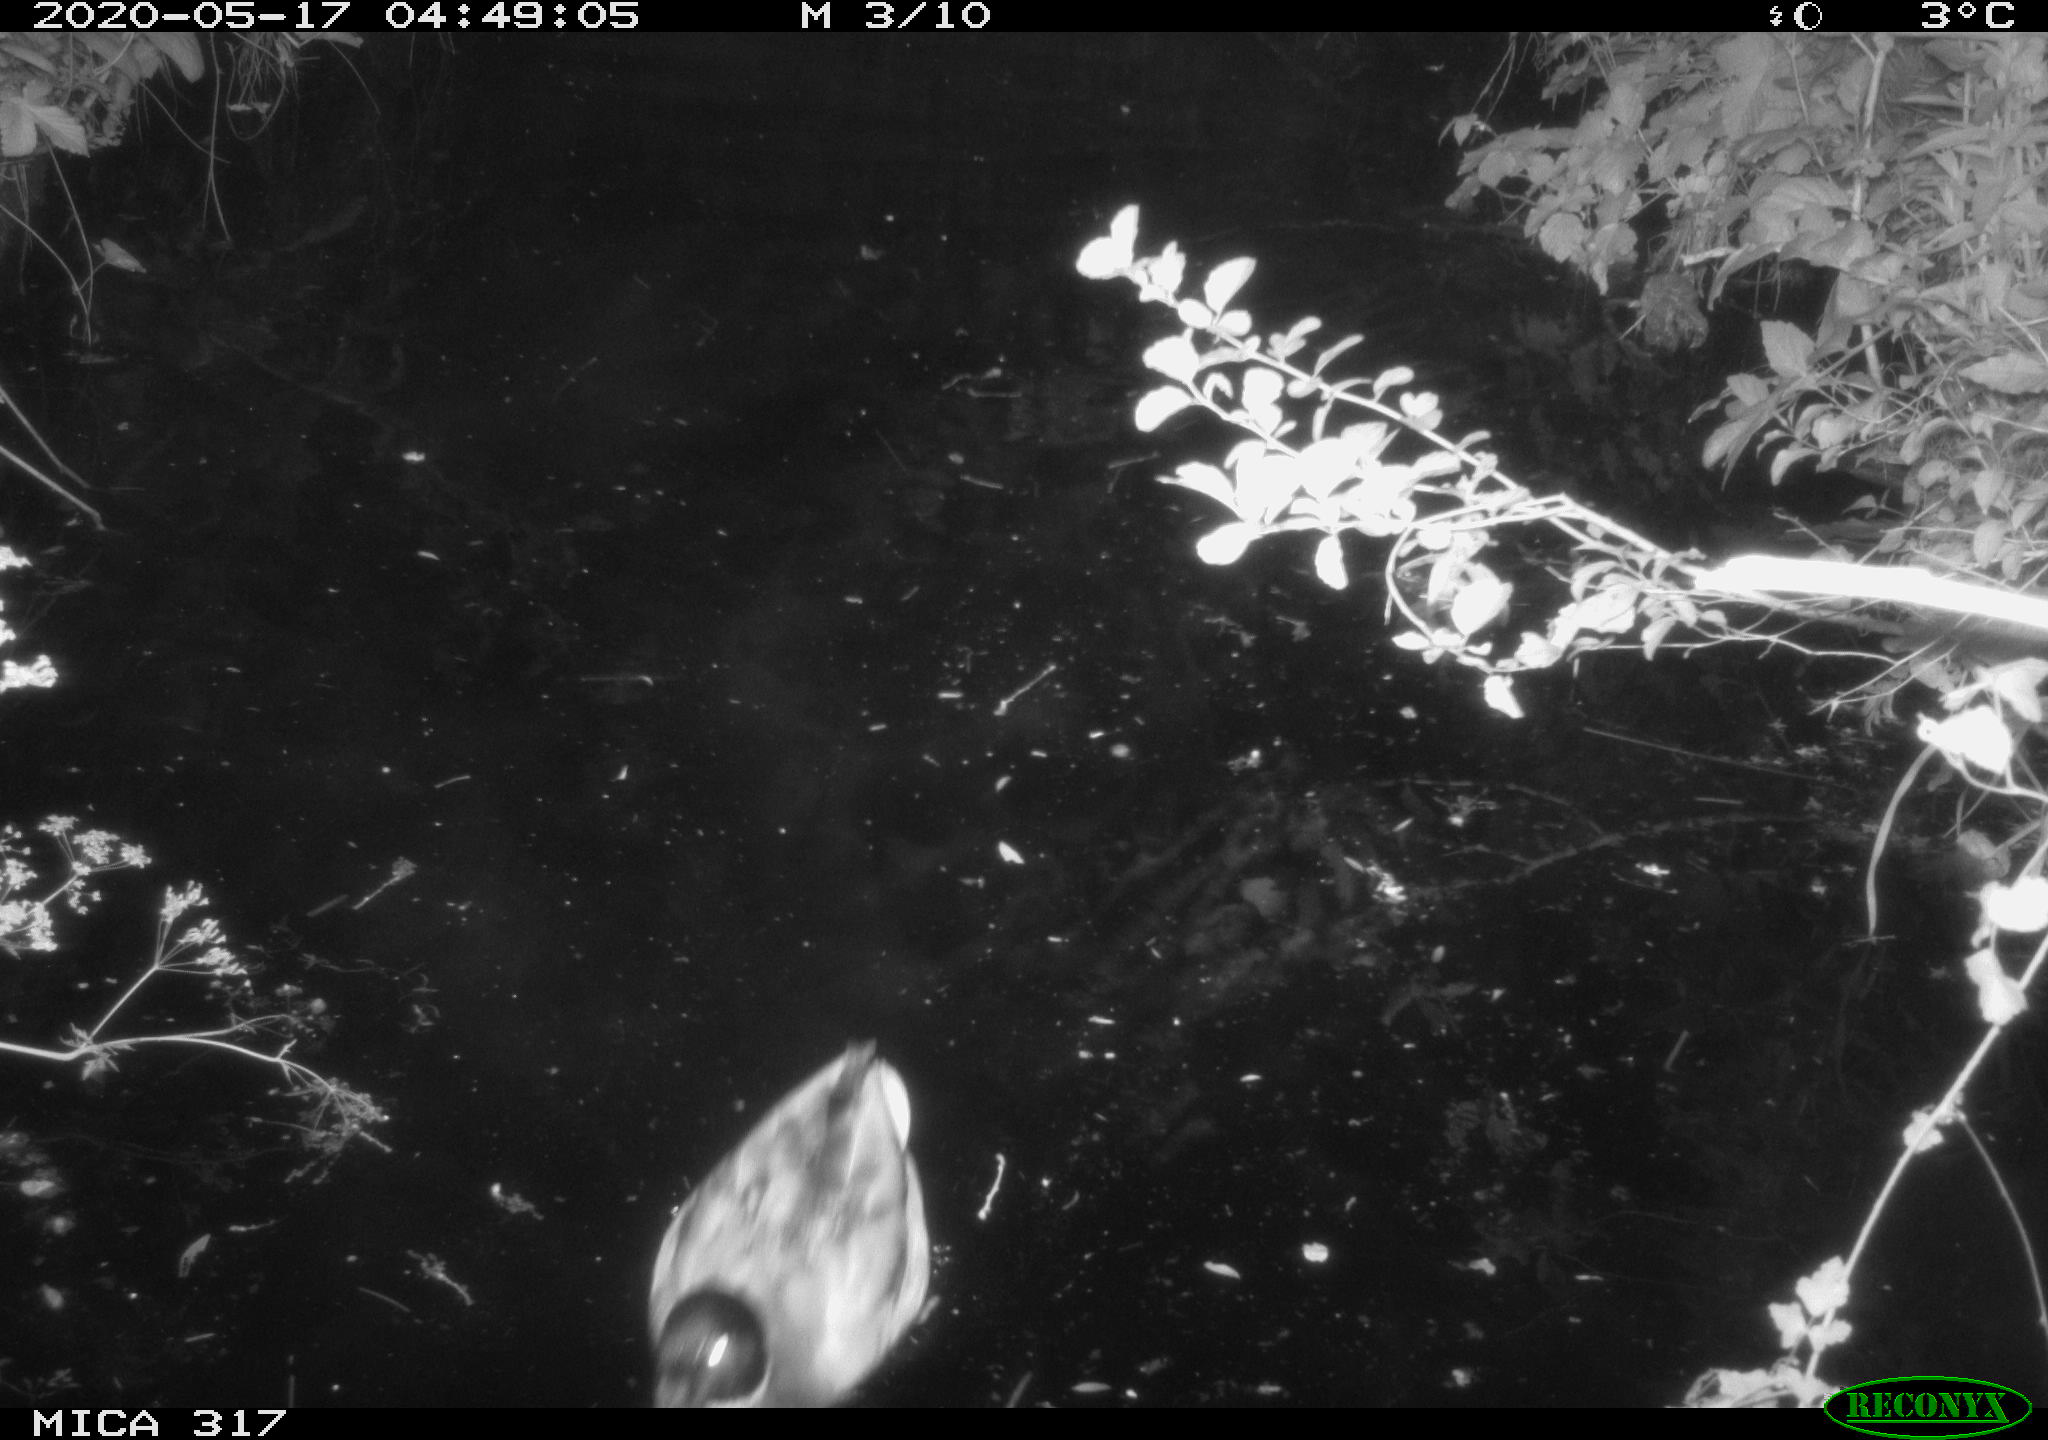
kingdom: Animalia
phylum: Chordata
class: Aves
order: Anseriformes
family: Anatidae
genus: Anas
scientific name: Anas platyrhynchos
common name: Mallard
